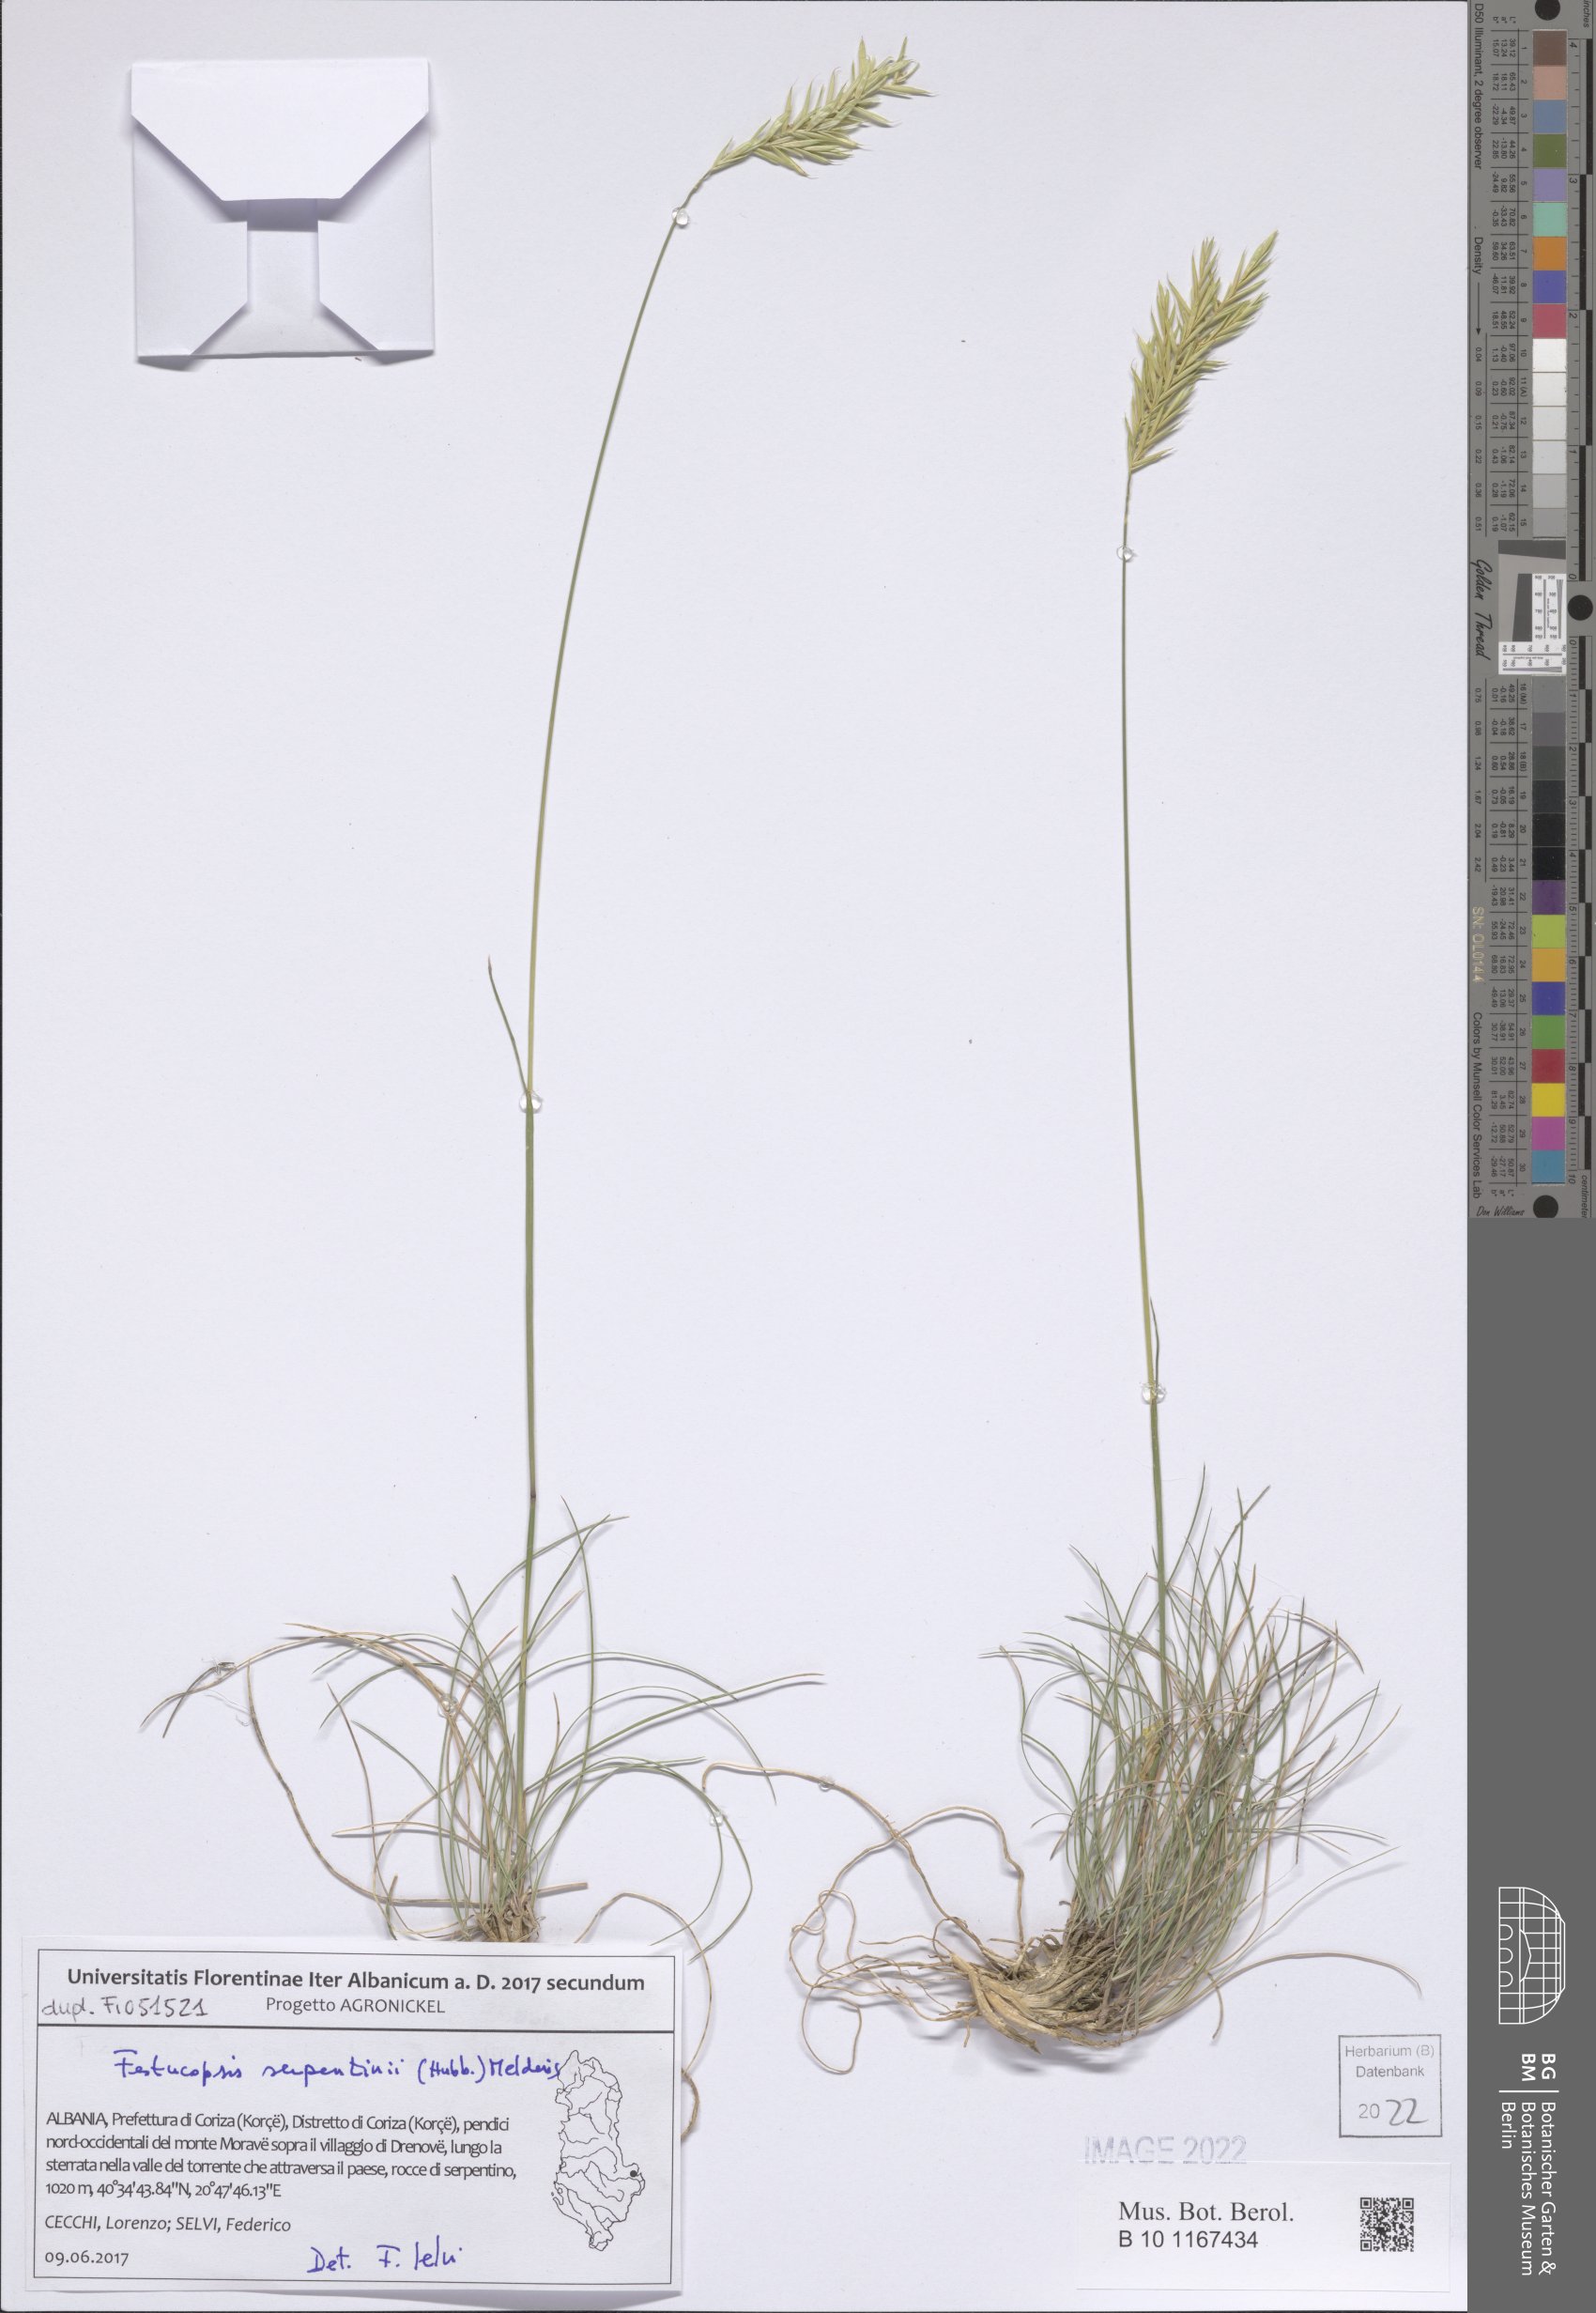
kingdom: Plantae
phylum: Tracheophyta
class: Liliopsida
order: Poales
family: Poaceae
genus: Festucopsis
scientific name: Festucopsis serpentini
